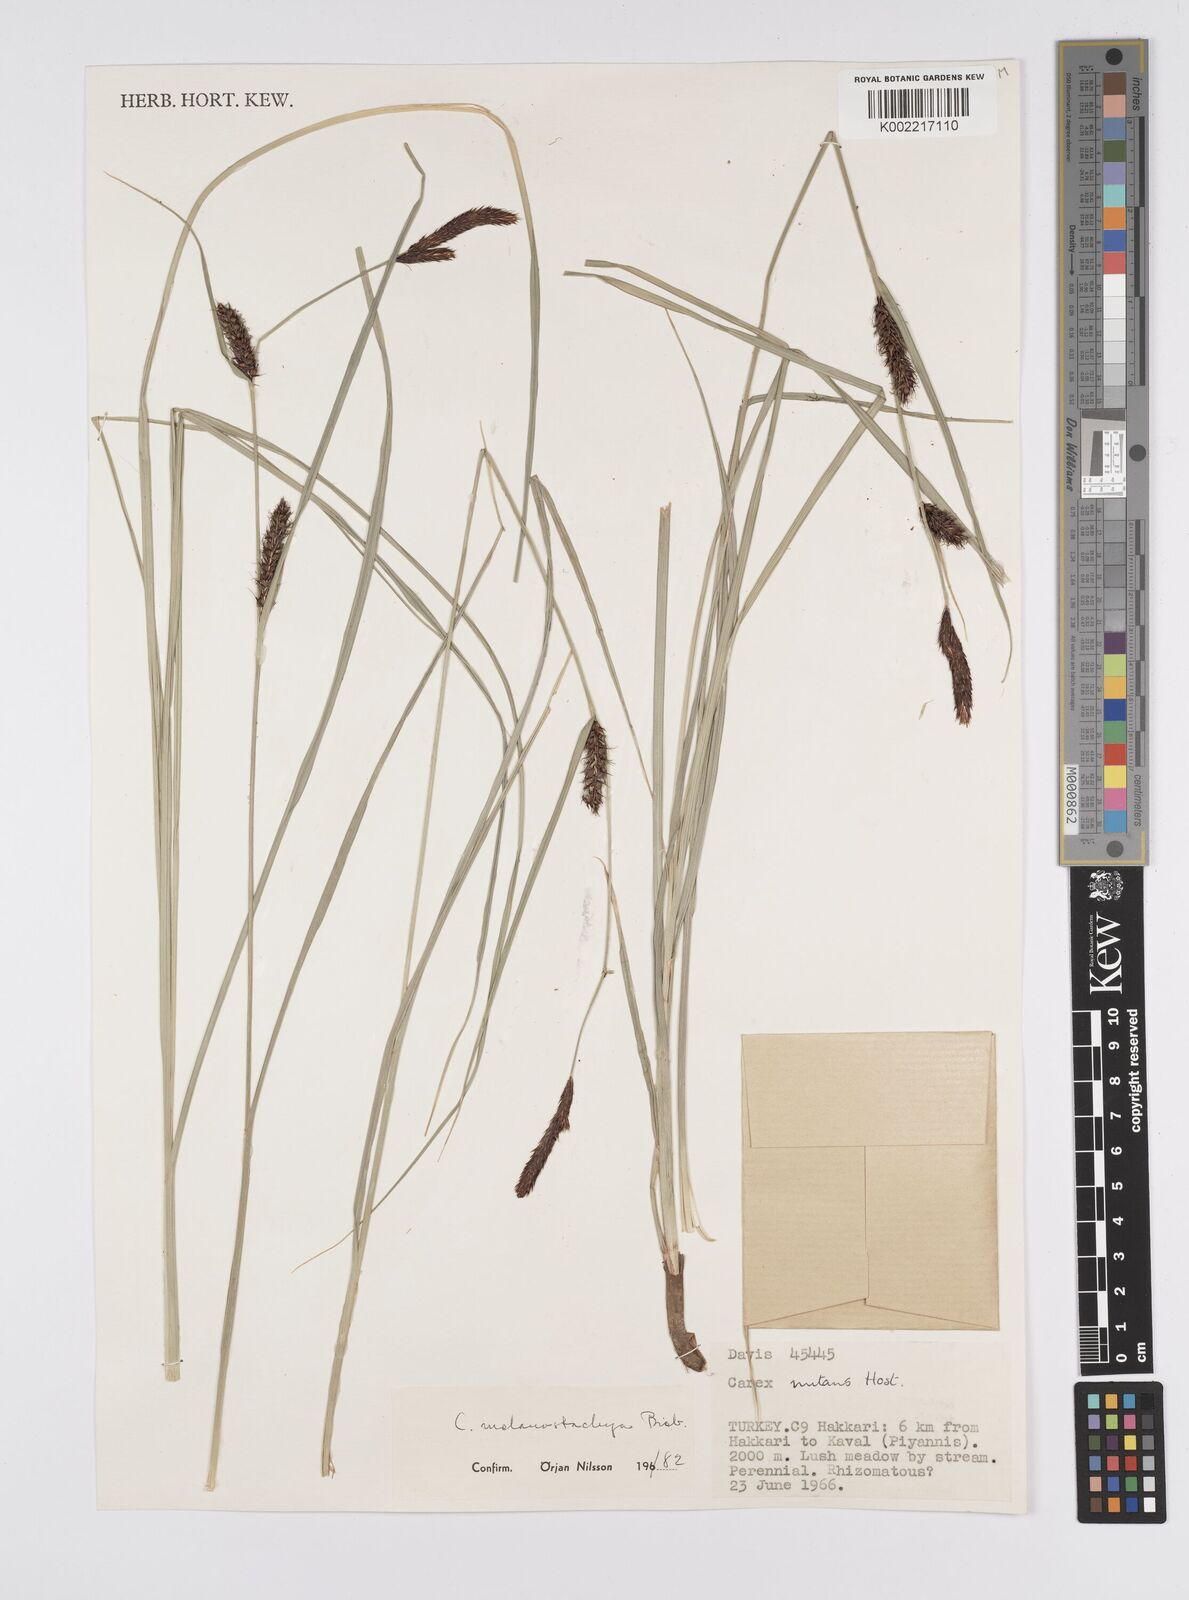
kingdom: Plantae
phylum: Tracheophyta
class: Liliopsida
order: Poales
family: Cyperaceae
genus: Carex
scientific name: Carex melanostachya
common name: Black-spiked sedge
